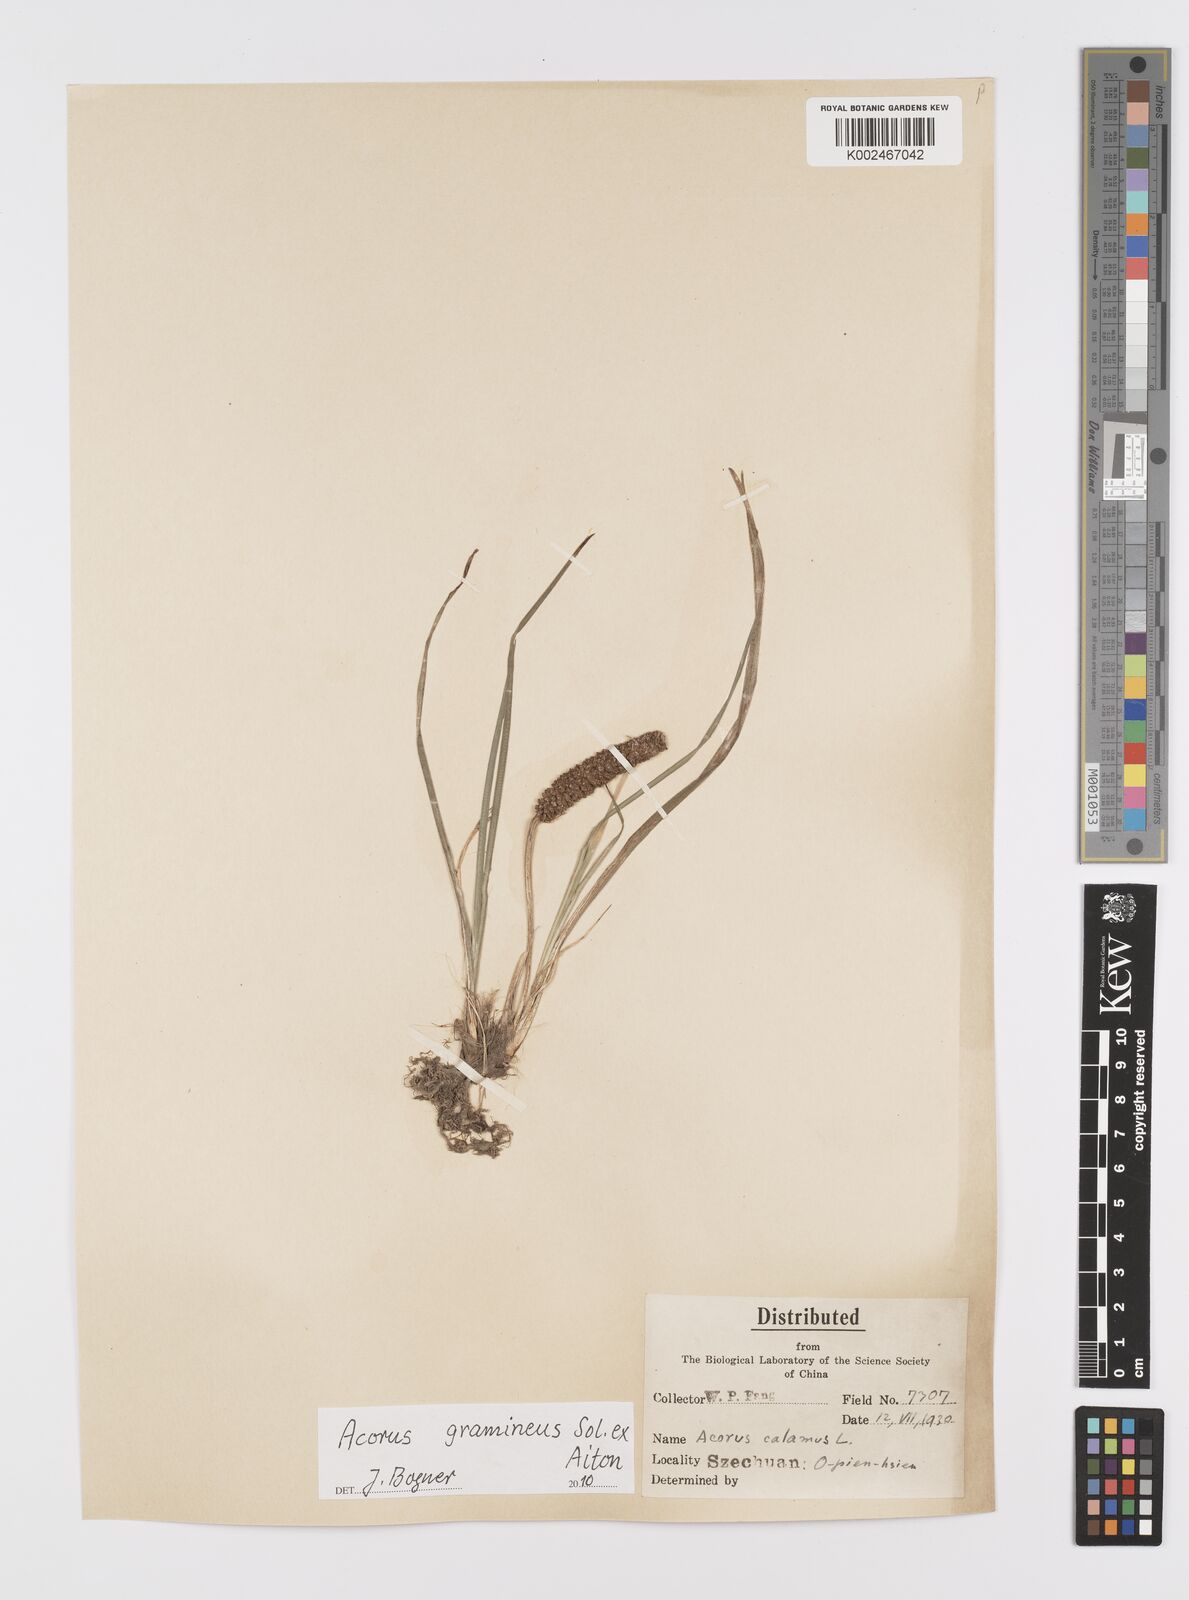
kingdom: Plantae
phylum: Tracheophyta
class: Liliopsida
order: Acorales
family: Acoraceae
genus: Acorus
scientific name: Acorus gramineus
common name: Slender sweet-flag
